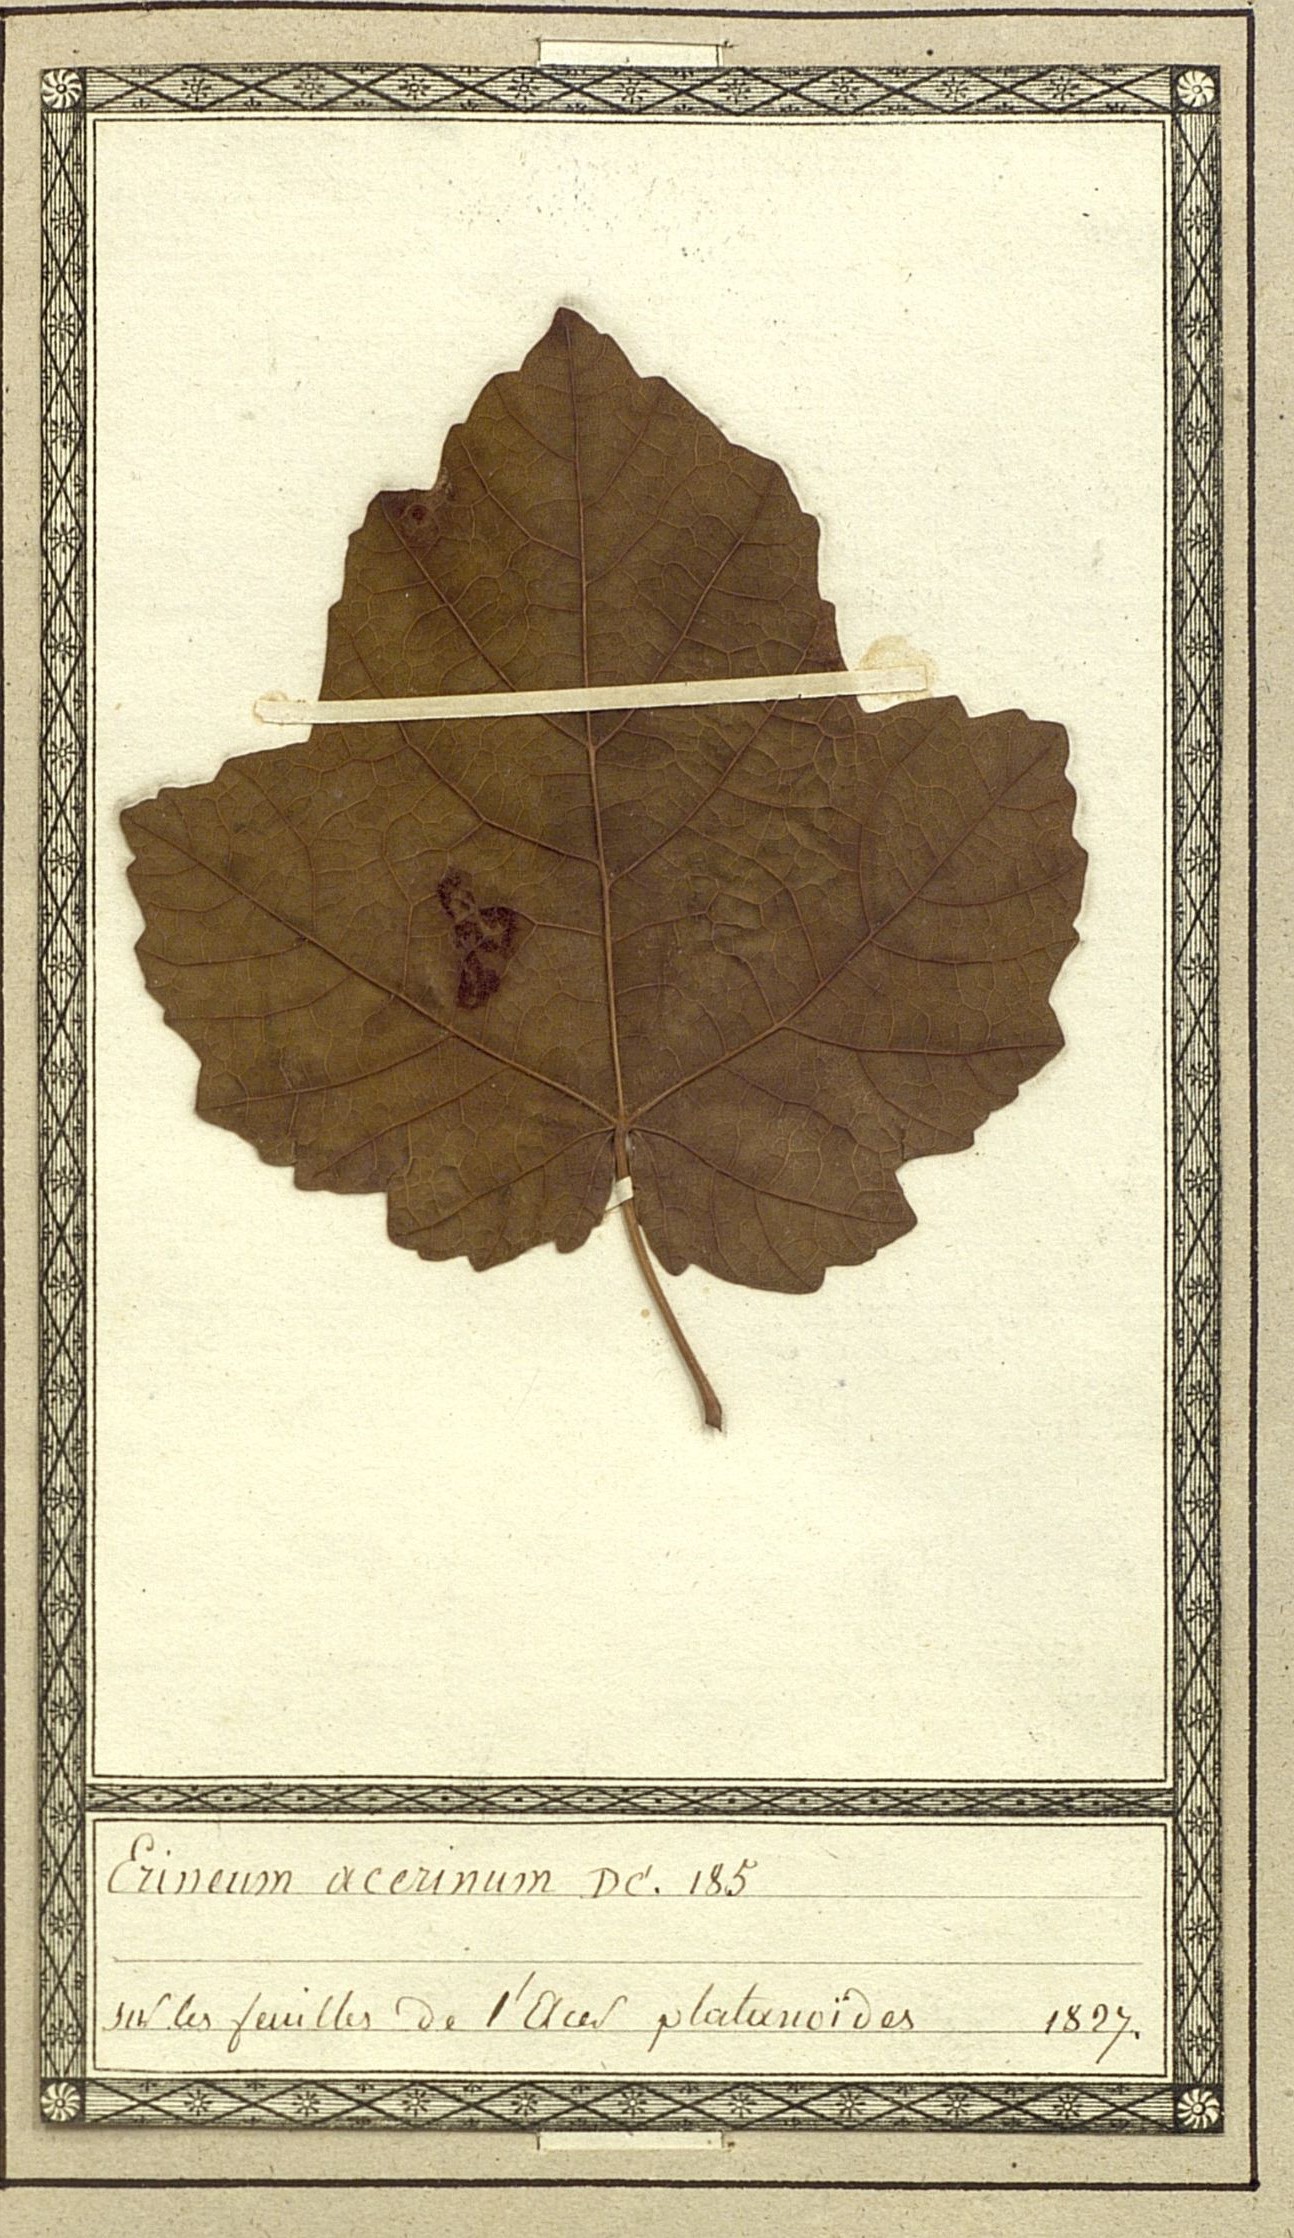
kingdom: Fungi
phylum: Basidiomycota
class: Pucciniomycetes
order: Pucciniales
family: Cronartiaceae
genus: Erineum
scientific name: Erineum
